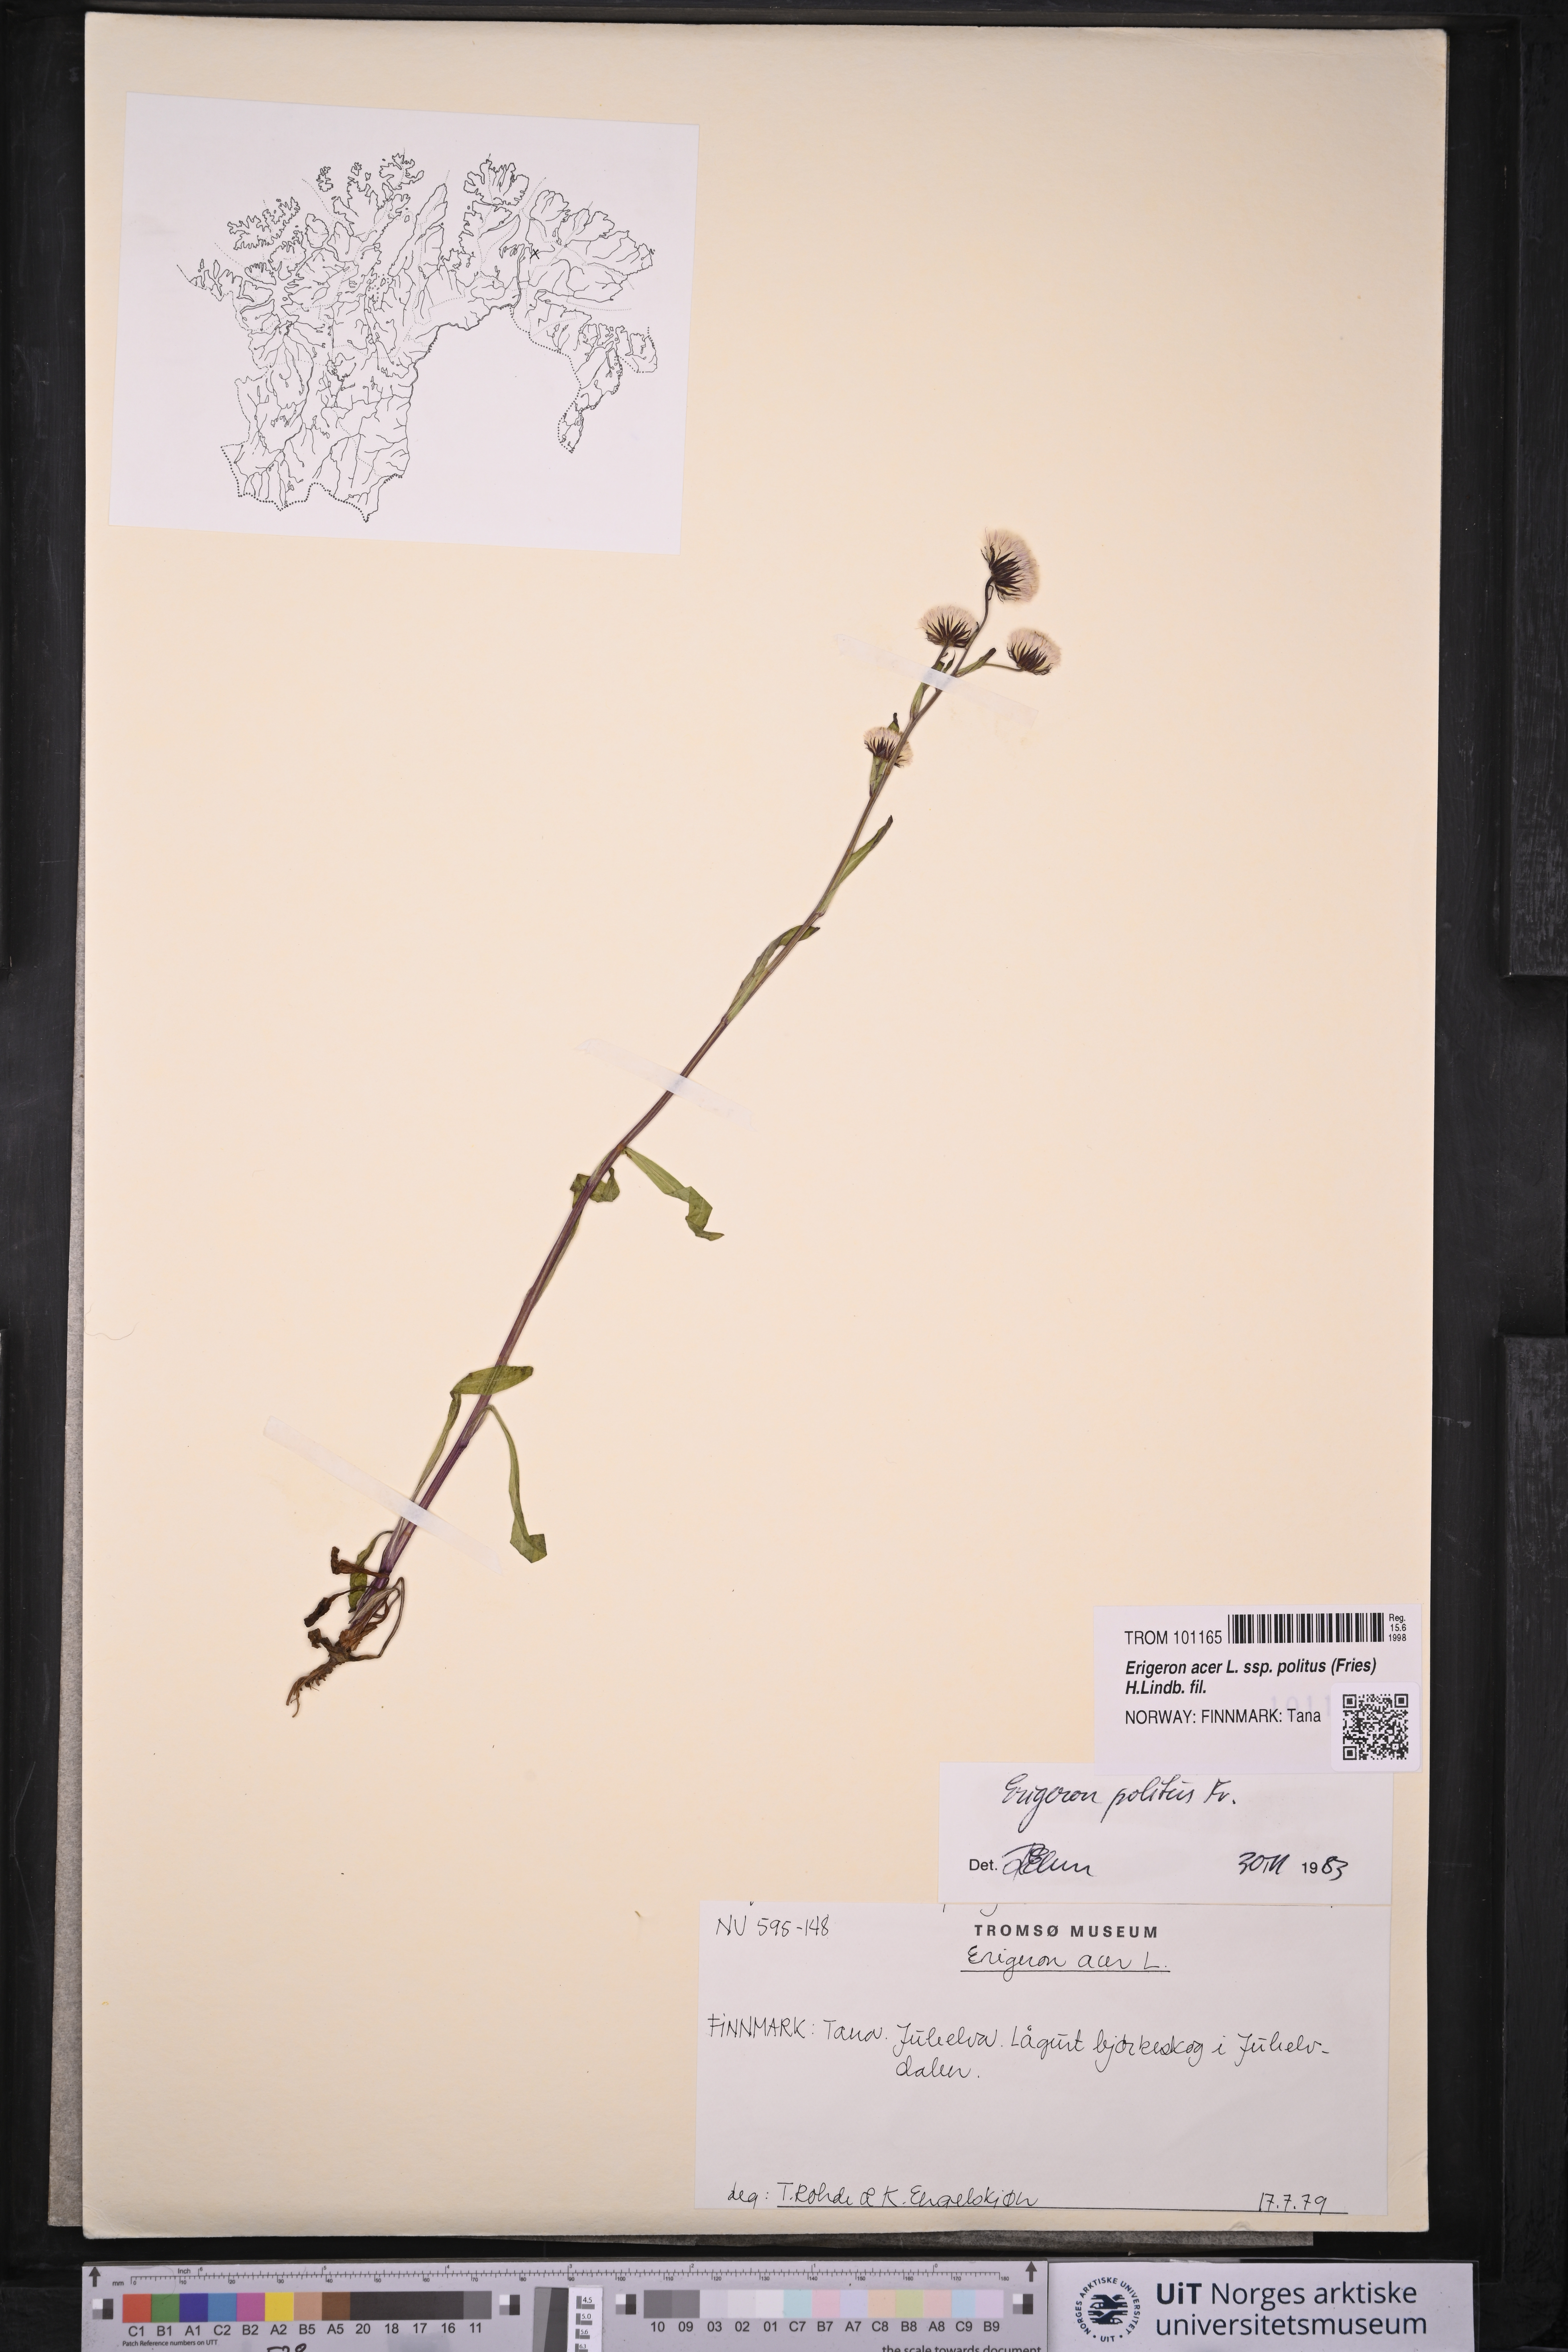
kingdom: Plantae
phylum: Tracheophyta
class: Magnoliopsida
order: Asterales
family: Asteraceae
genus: Erigeron
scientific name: Erigeron politus
